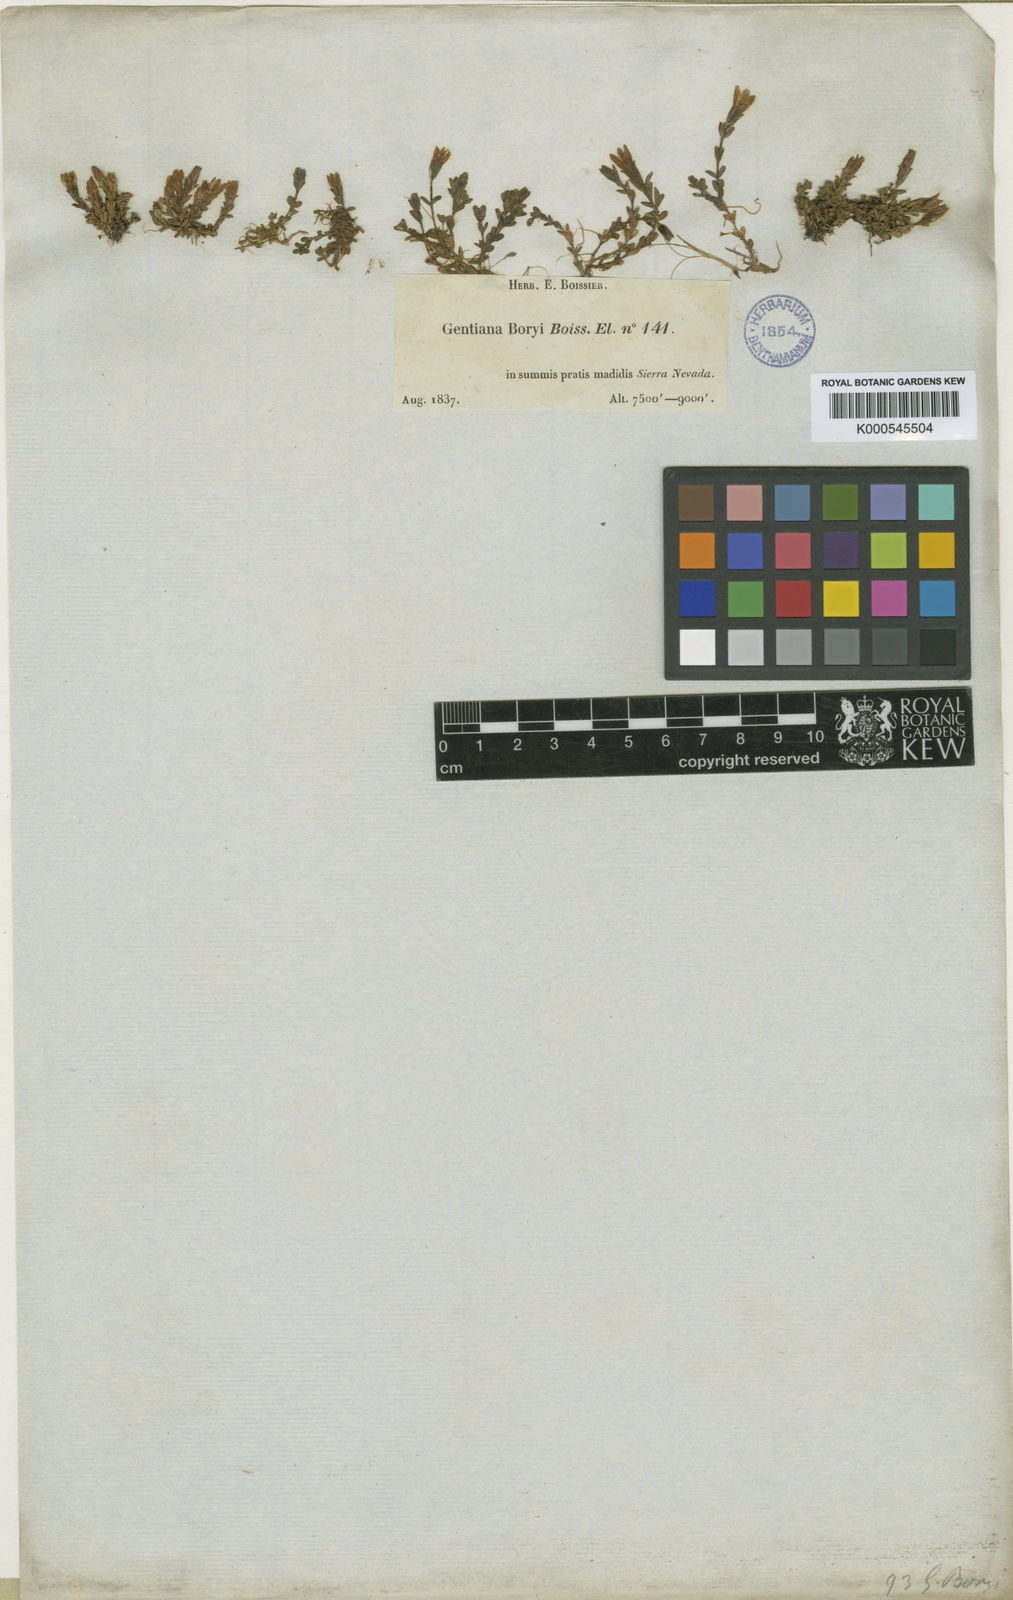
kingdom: Plantae
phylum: Tracheophyta
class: Magnoliopsida
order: Gentianales
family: Gentianaceae
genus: Gentiana
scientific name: Gentiana boryi
